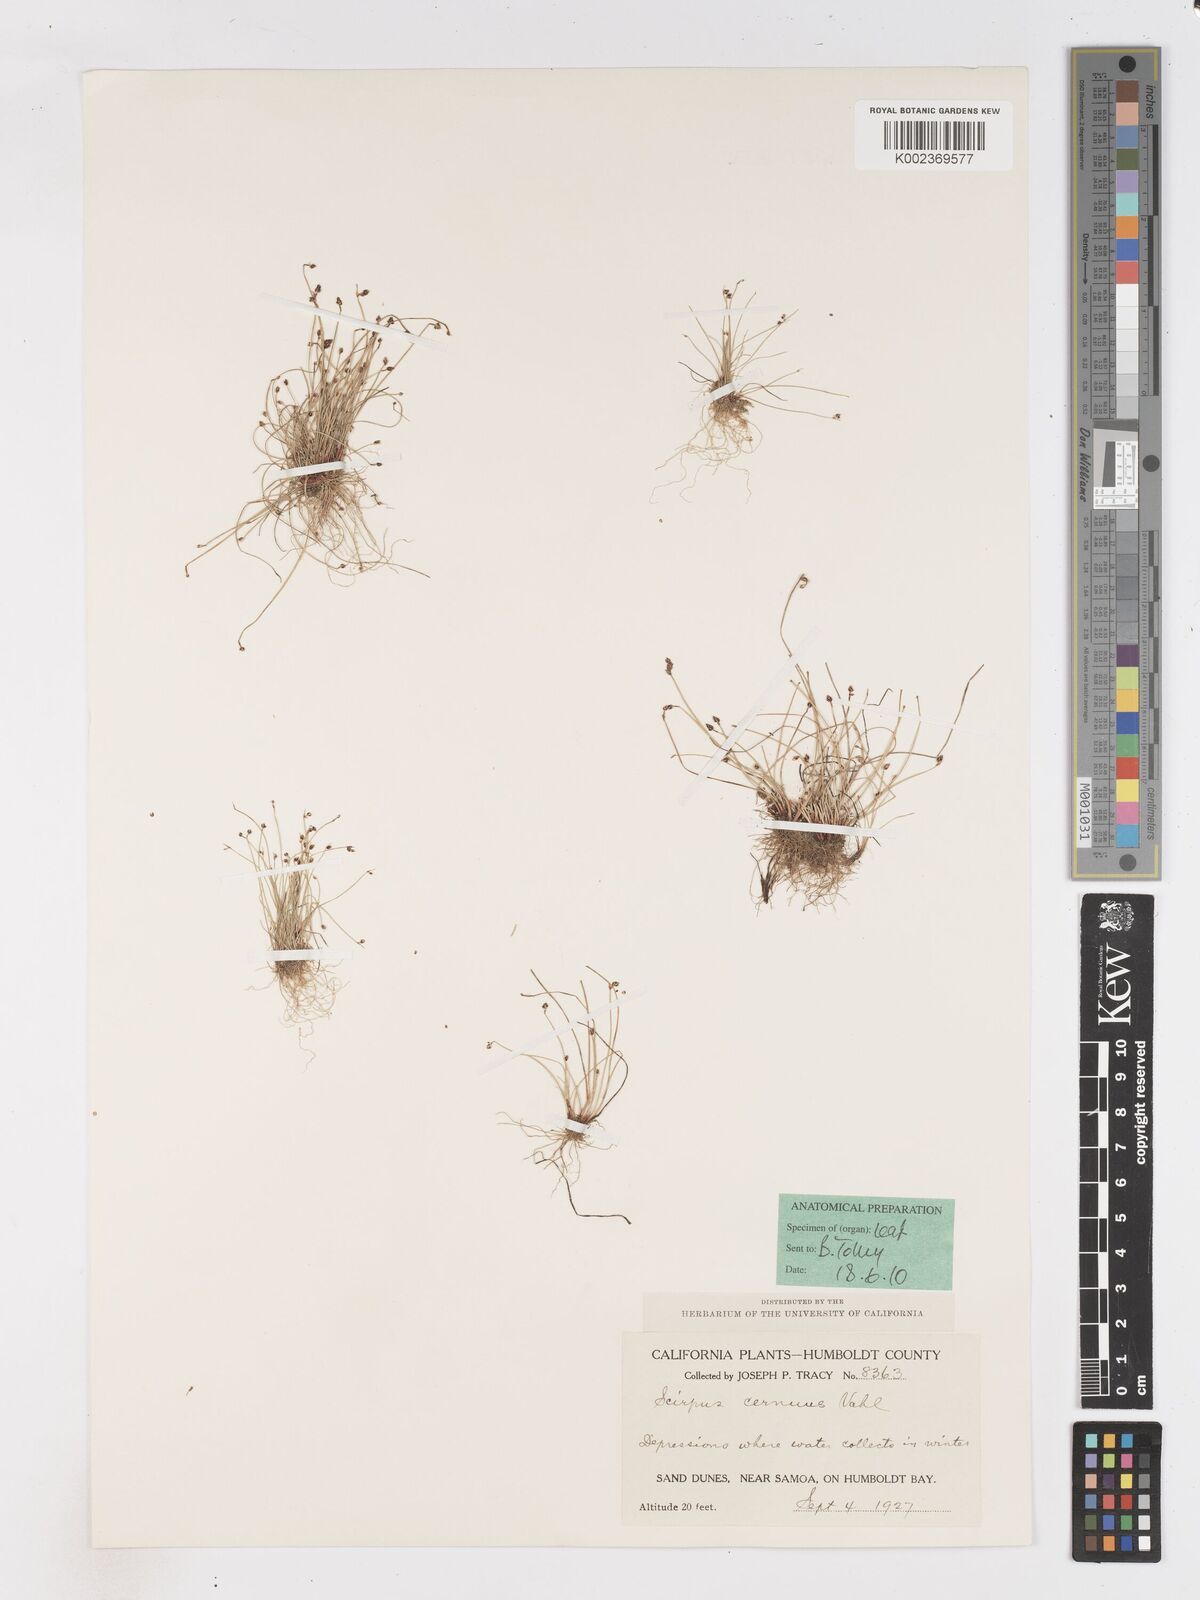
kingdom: Plantae
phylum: Tracheophyta
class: Liliopsida
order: Poales
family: Cyperaceae
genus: Isolepis
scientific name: Isolepis cernua
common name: Slender club-rush
